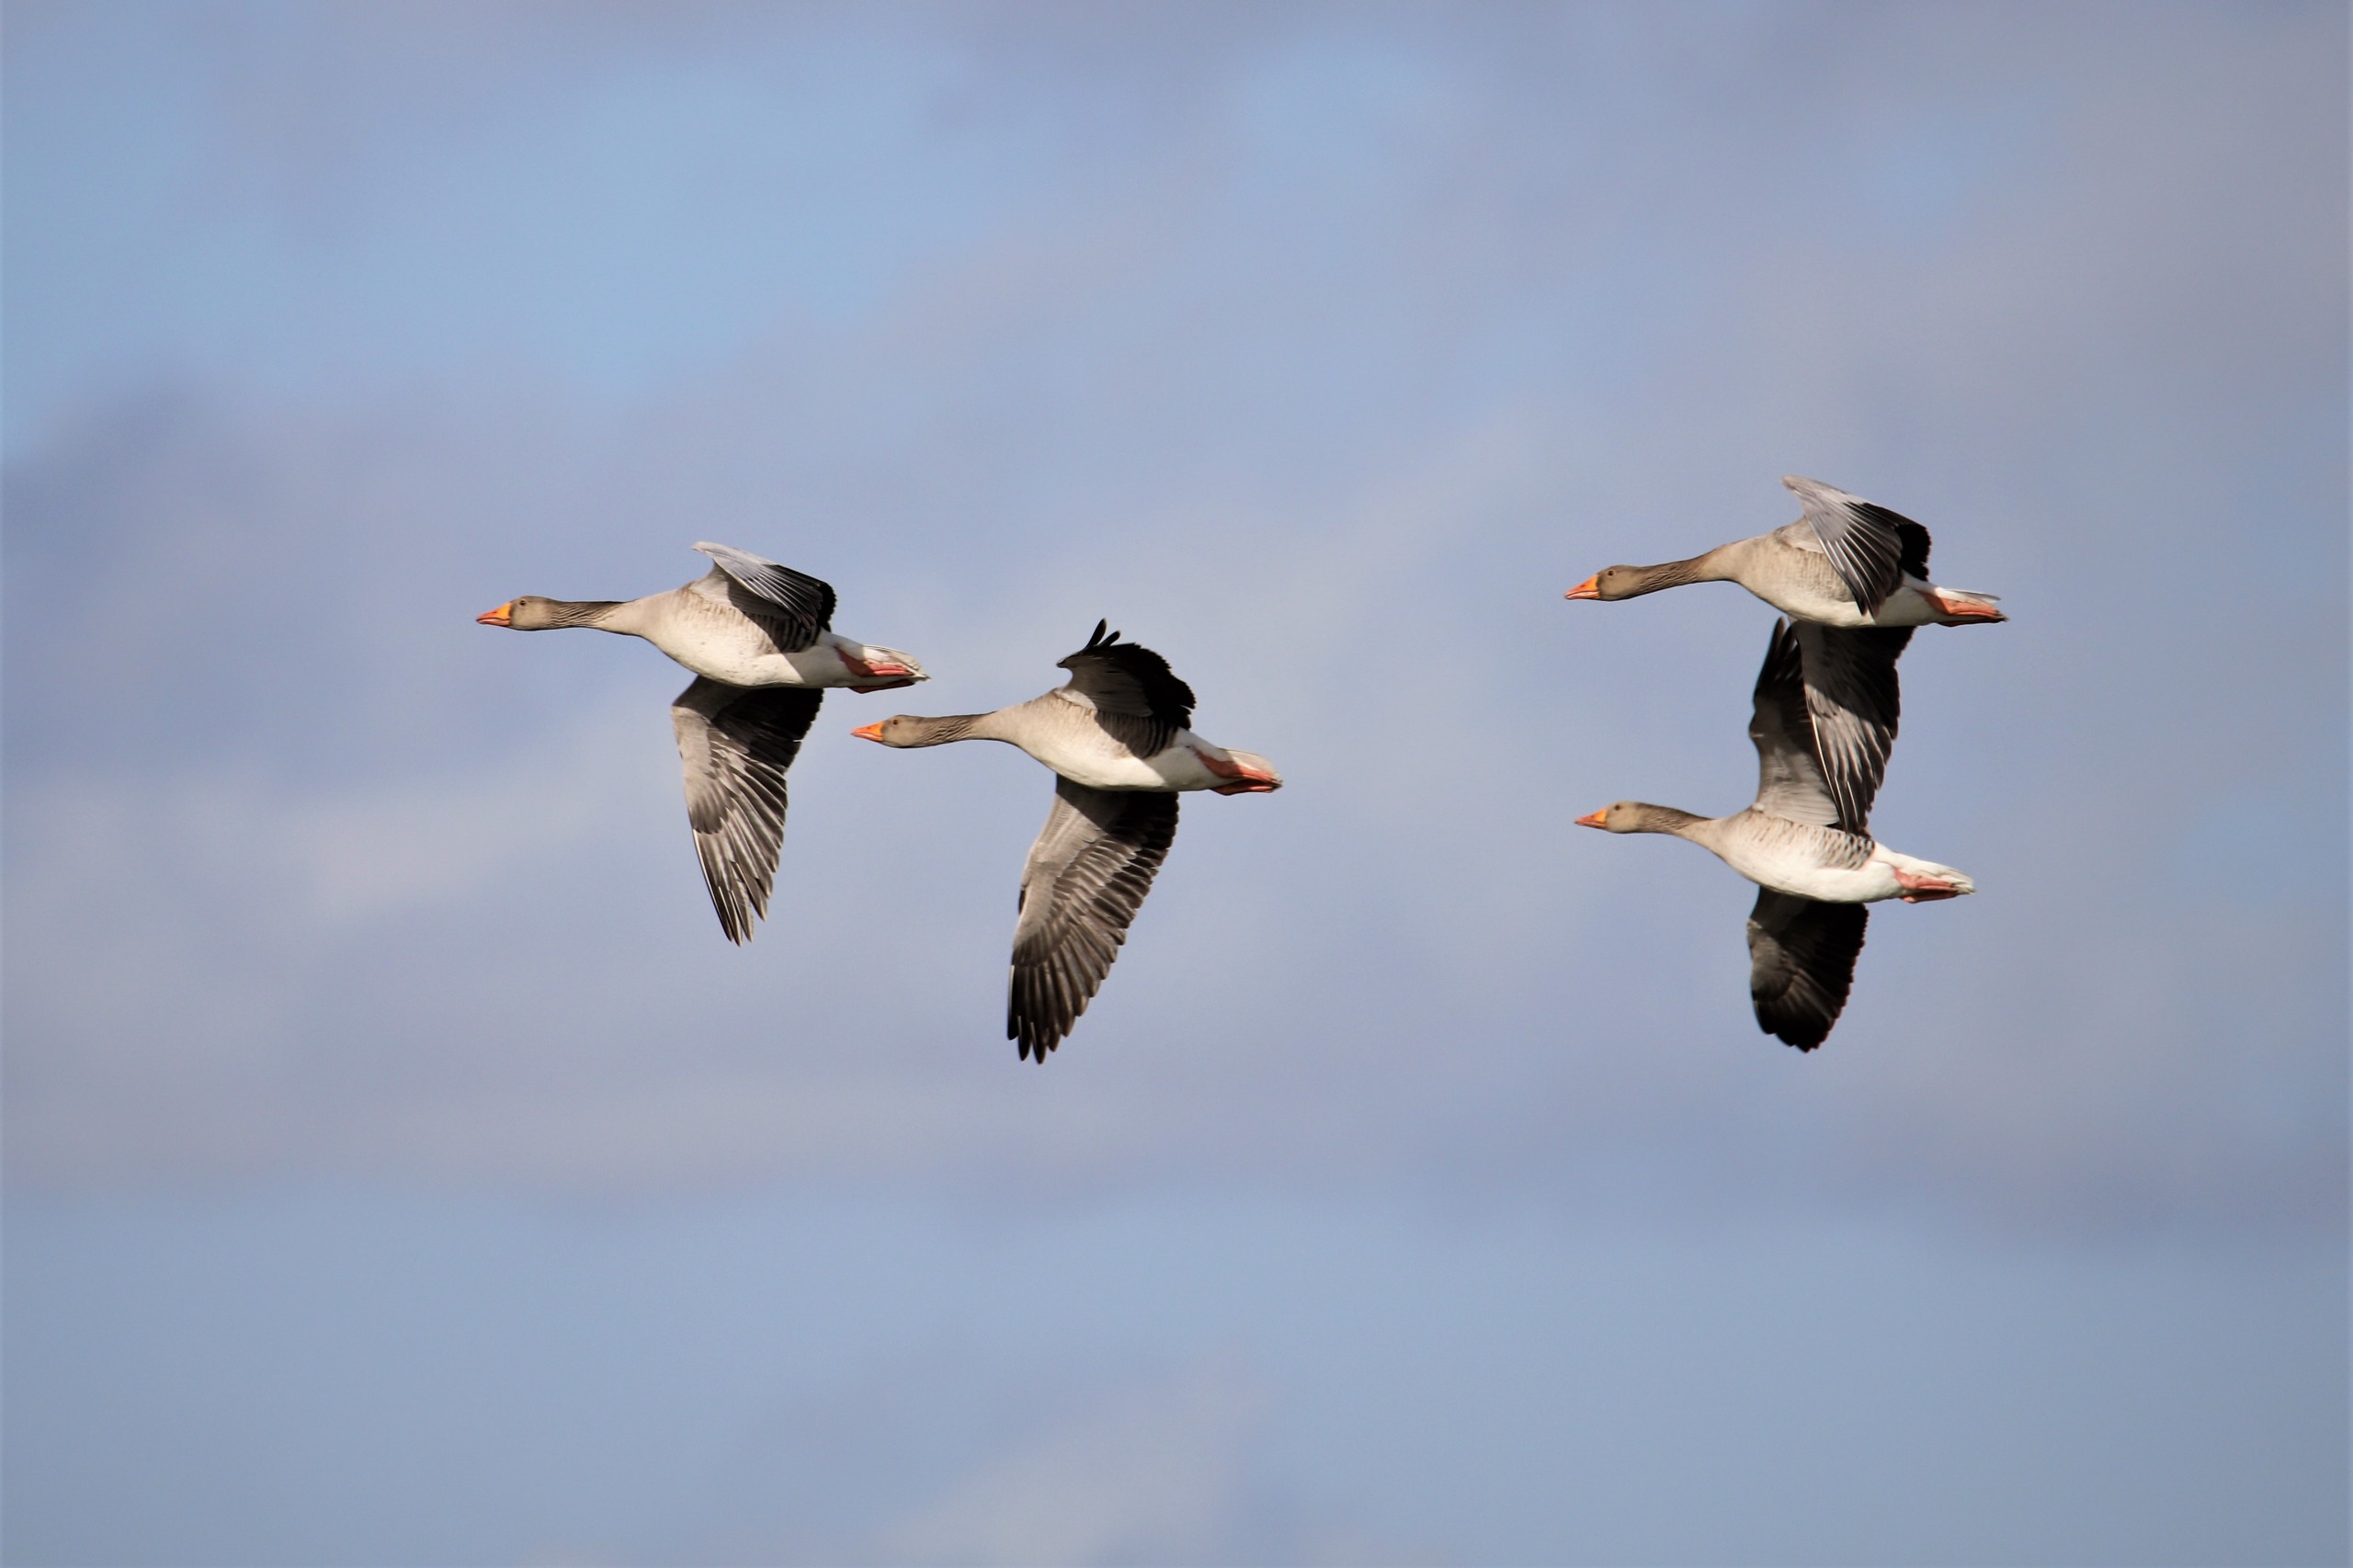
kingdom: Animalia
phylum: Chordata
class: Aves
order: Anseriformes
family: Anatidae
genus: Anser
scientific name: Anser anser
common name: Grågås
